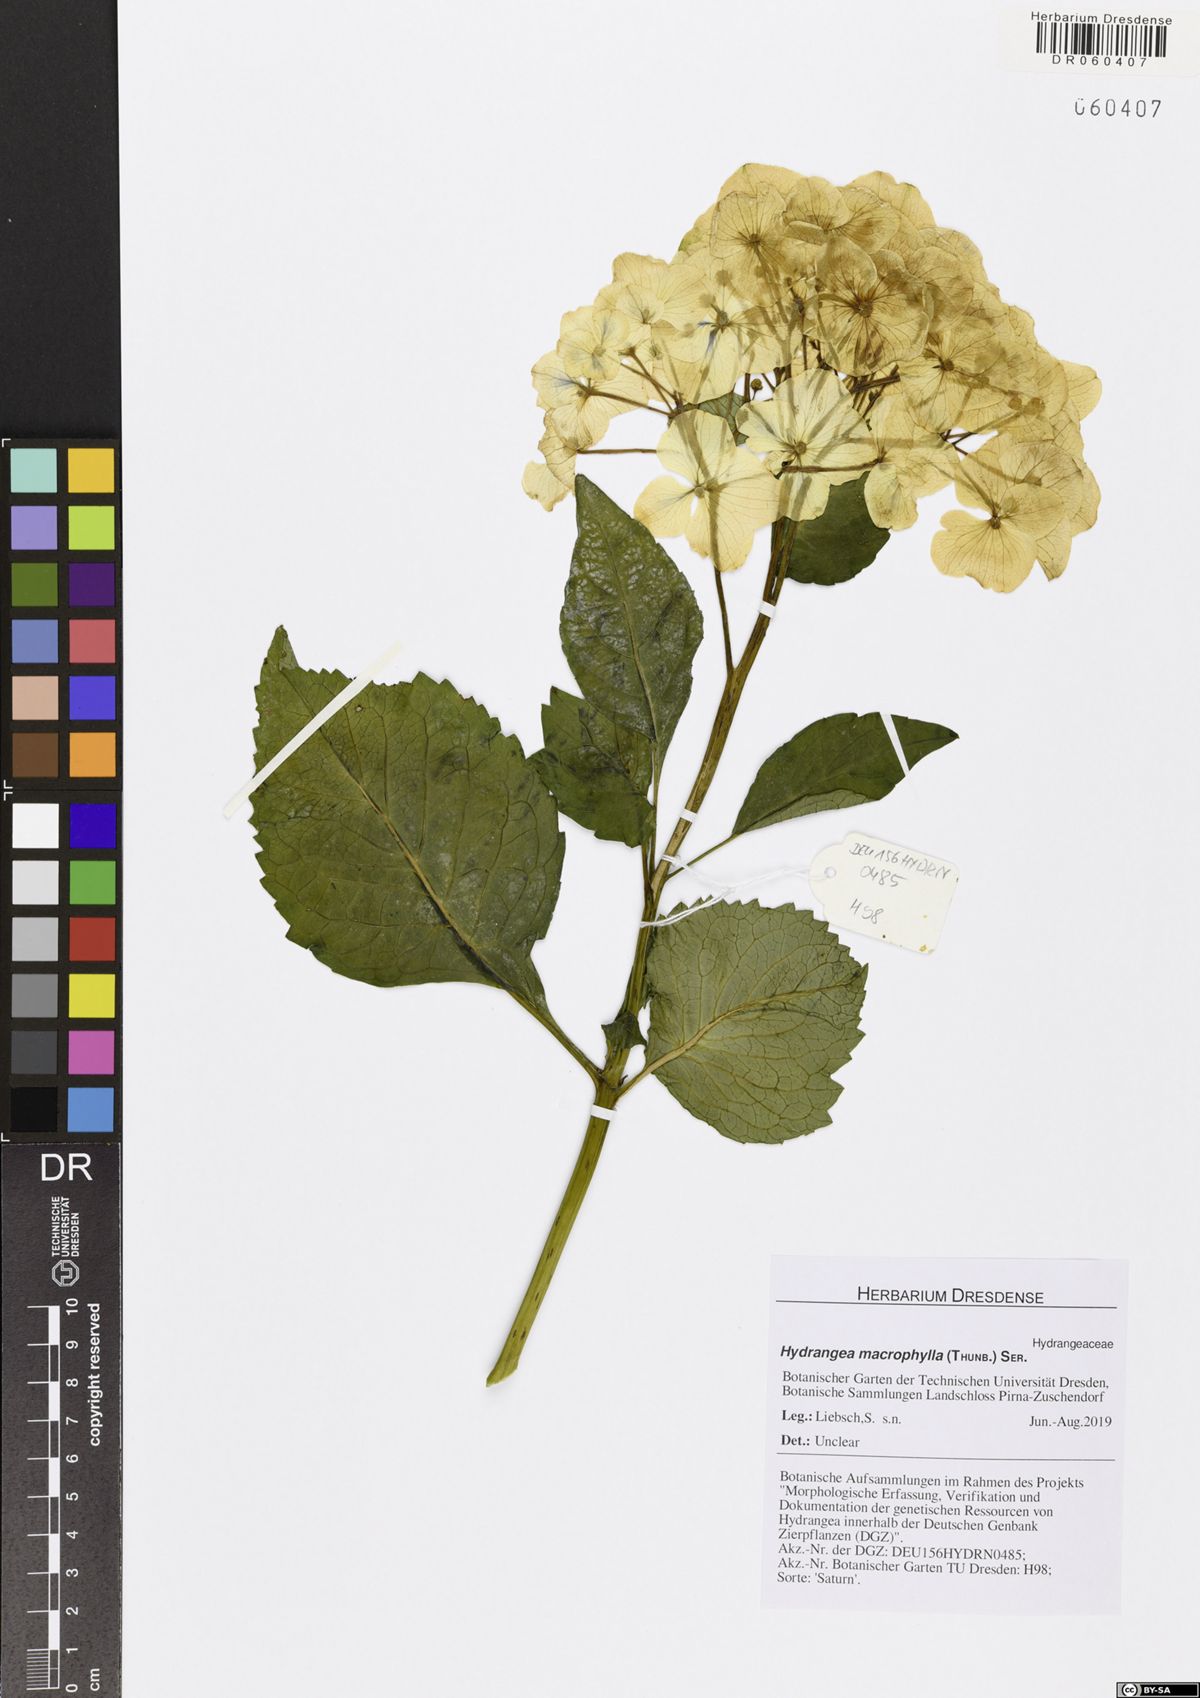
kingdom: Plantae
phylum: Tracheophyta
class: Magnoliopsida
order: Cornales
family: Hydrangeaceae
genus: Hydrangea
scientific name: Hydrangea macrophylla
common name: Hydrangea
